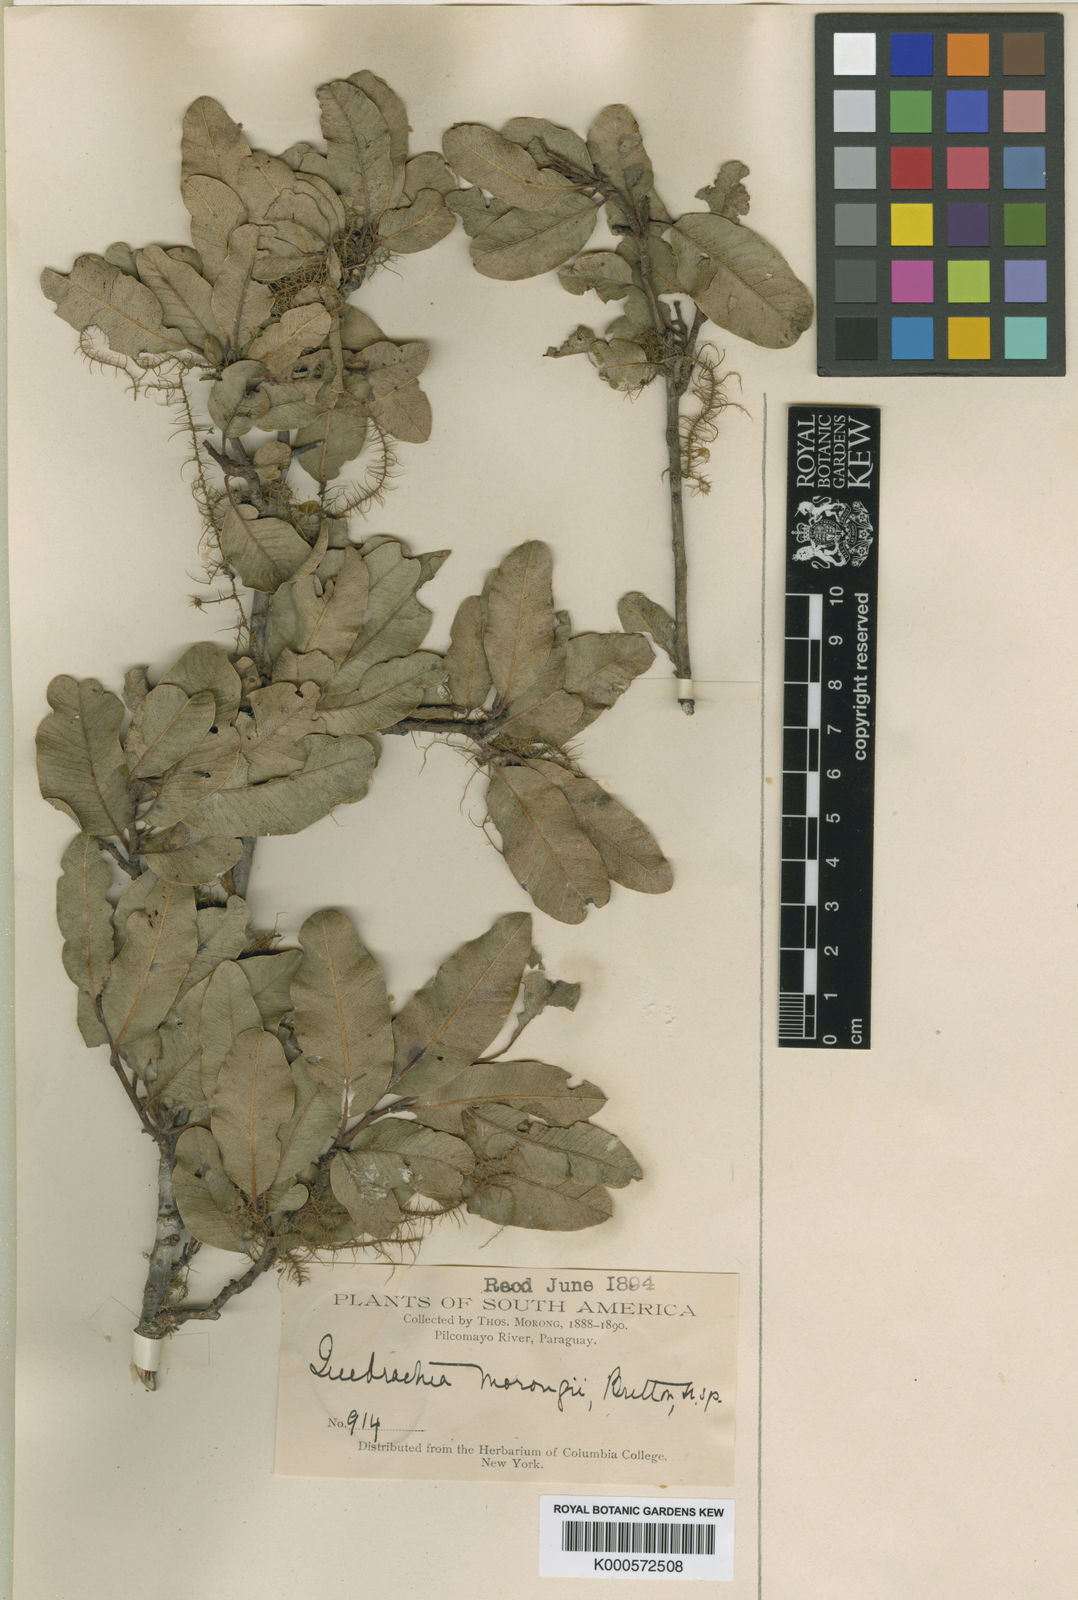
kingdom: Plantae
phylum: Tracheophyta
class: Magnoliopsida
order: Sapindales
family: Anacardiaceae
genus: Schinopsis
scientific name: Schinopsis balansae
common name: Red quebracho
